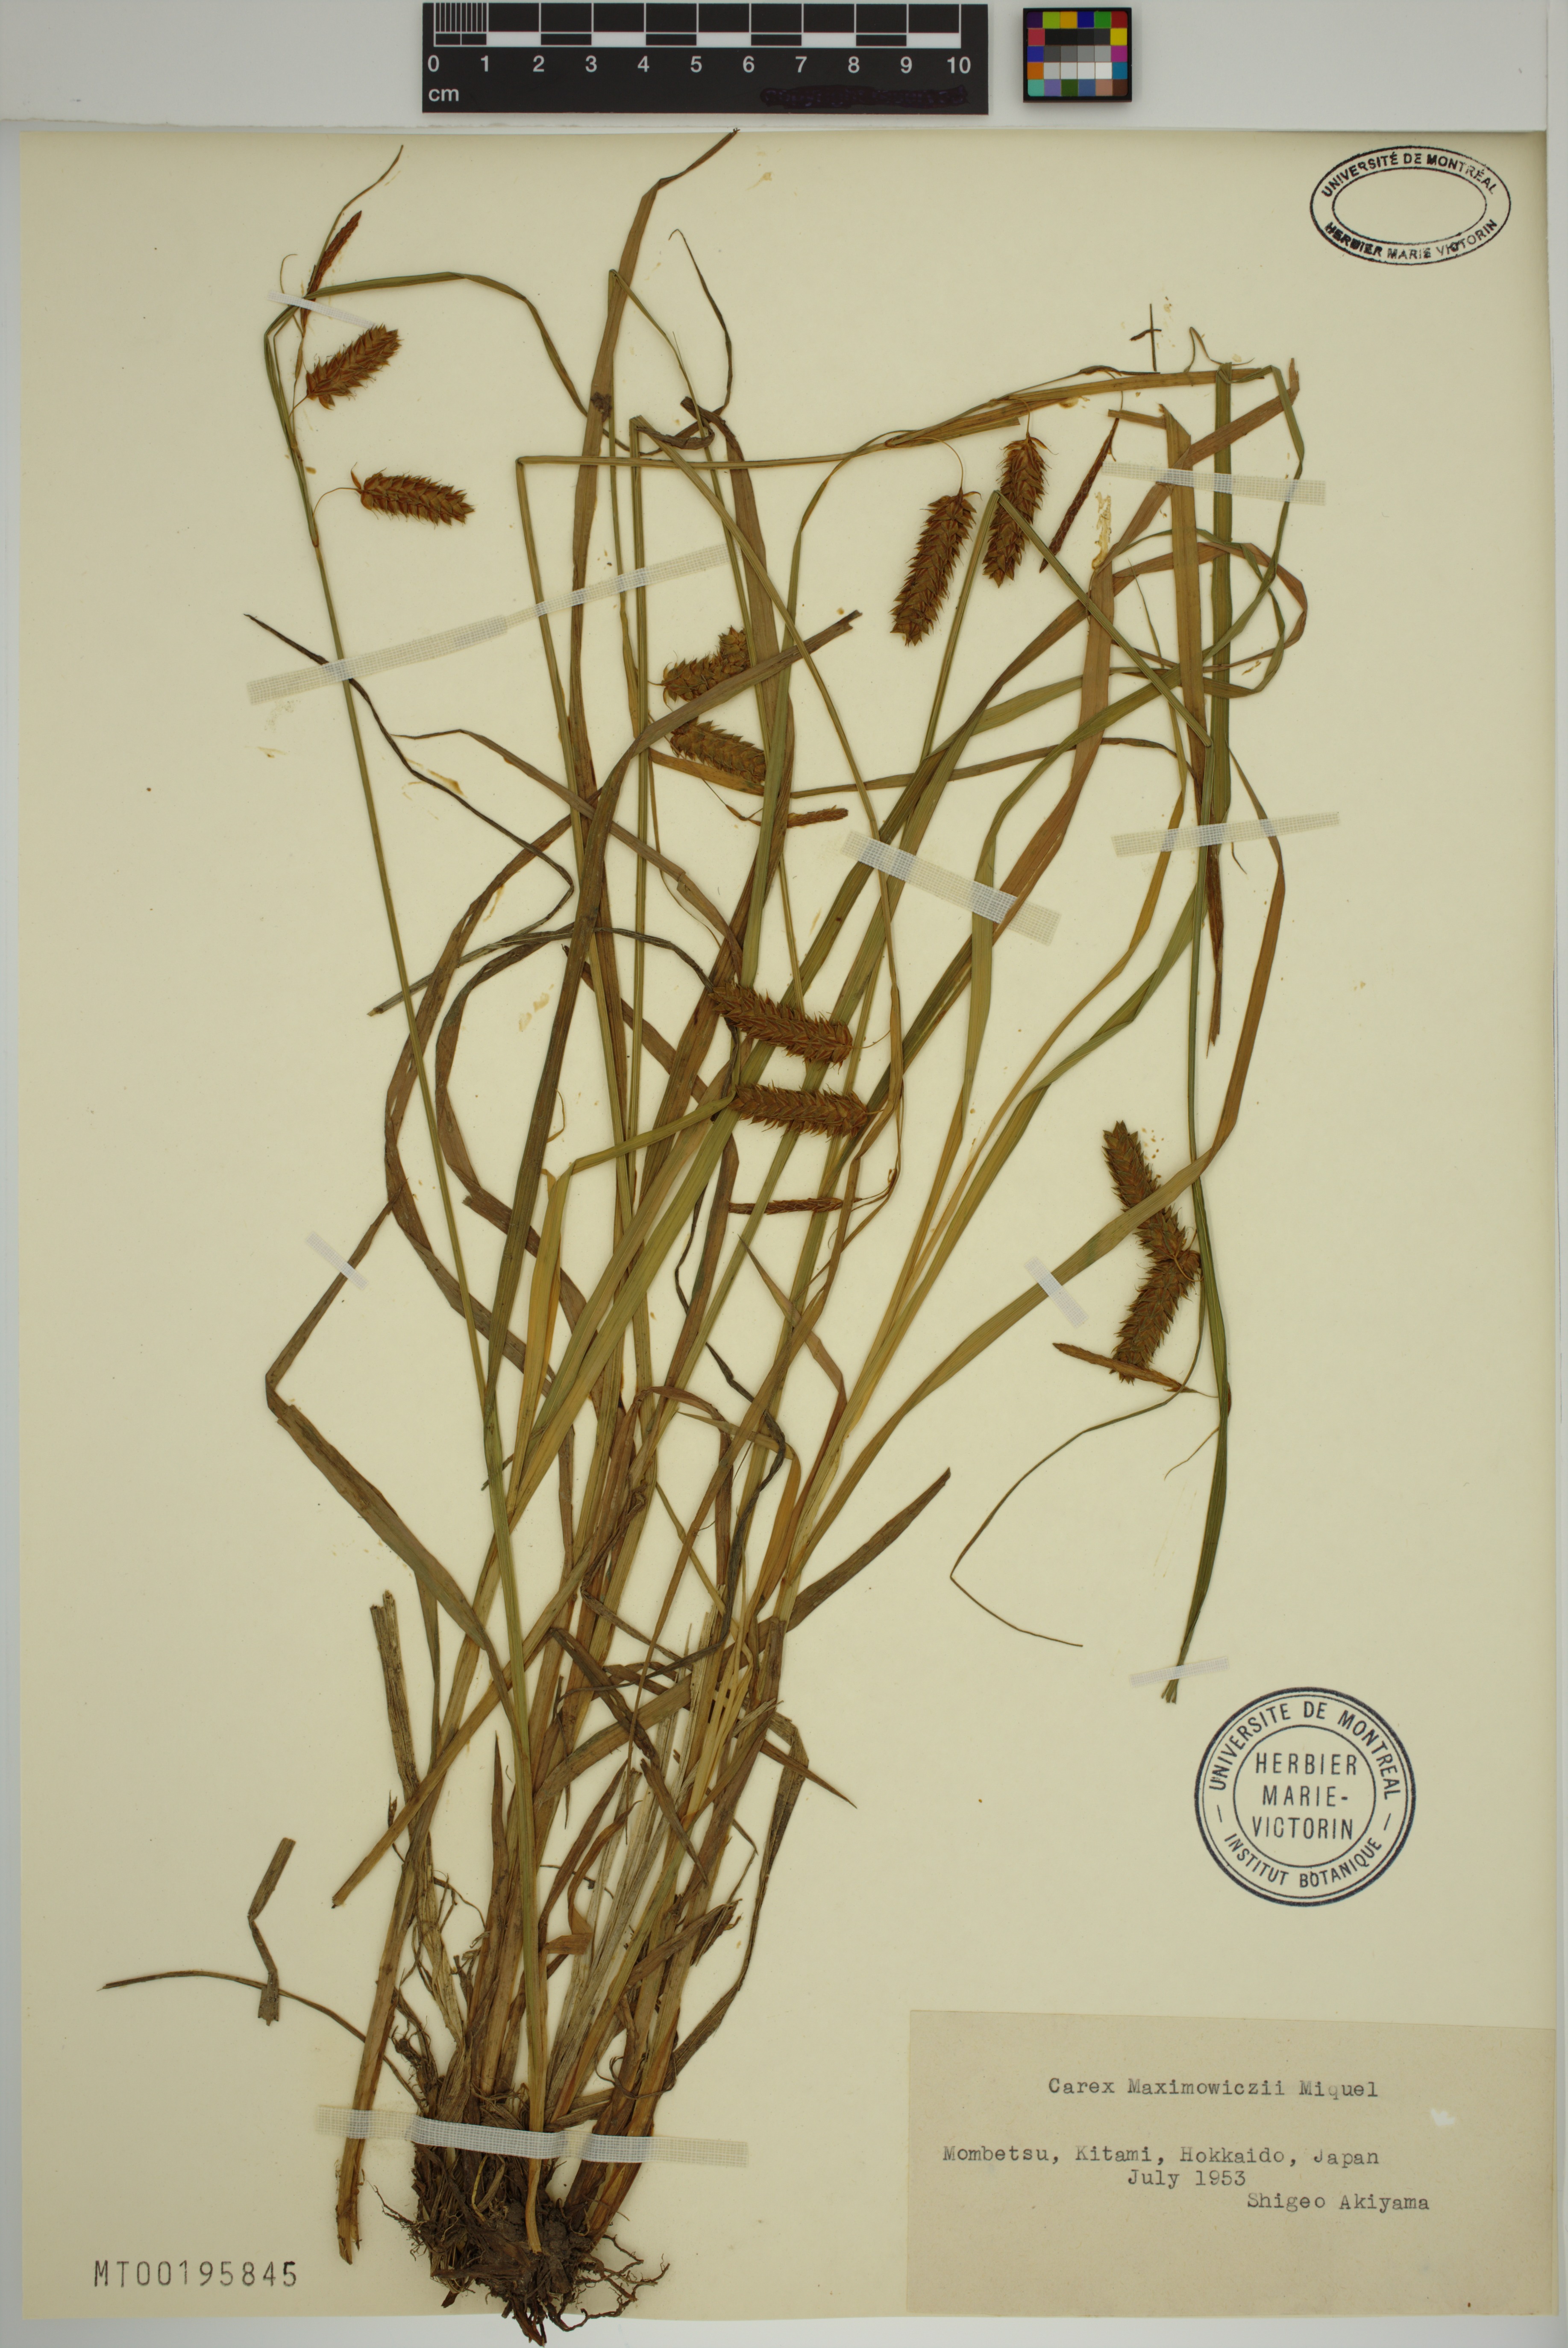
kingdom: Plantae
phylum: Tracheophyta
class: Liliopsida
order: Poales
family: Cyperaceae
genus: Carex
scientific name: Carex maximowiczii
